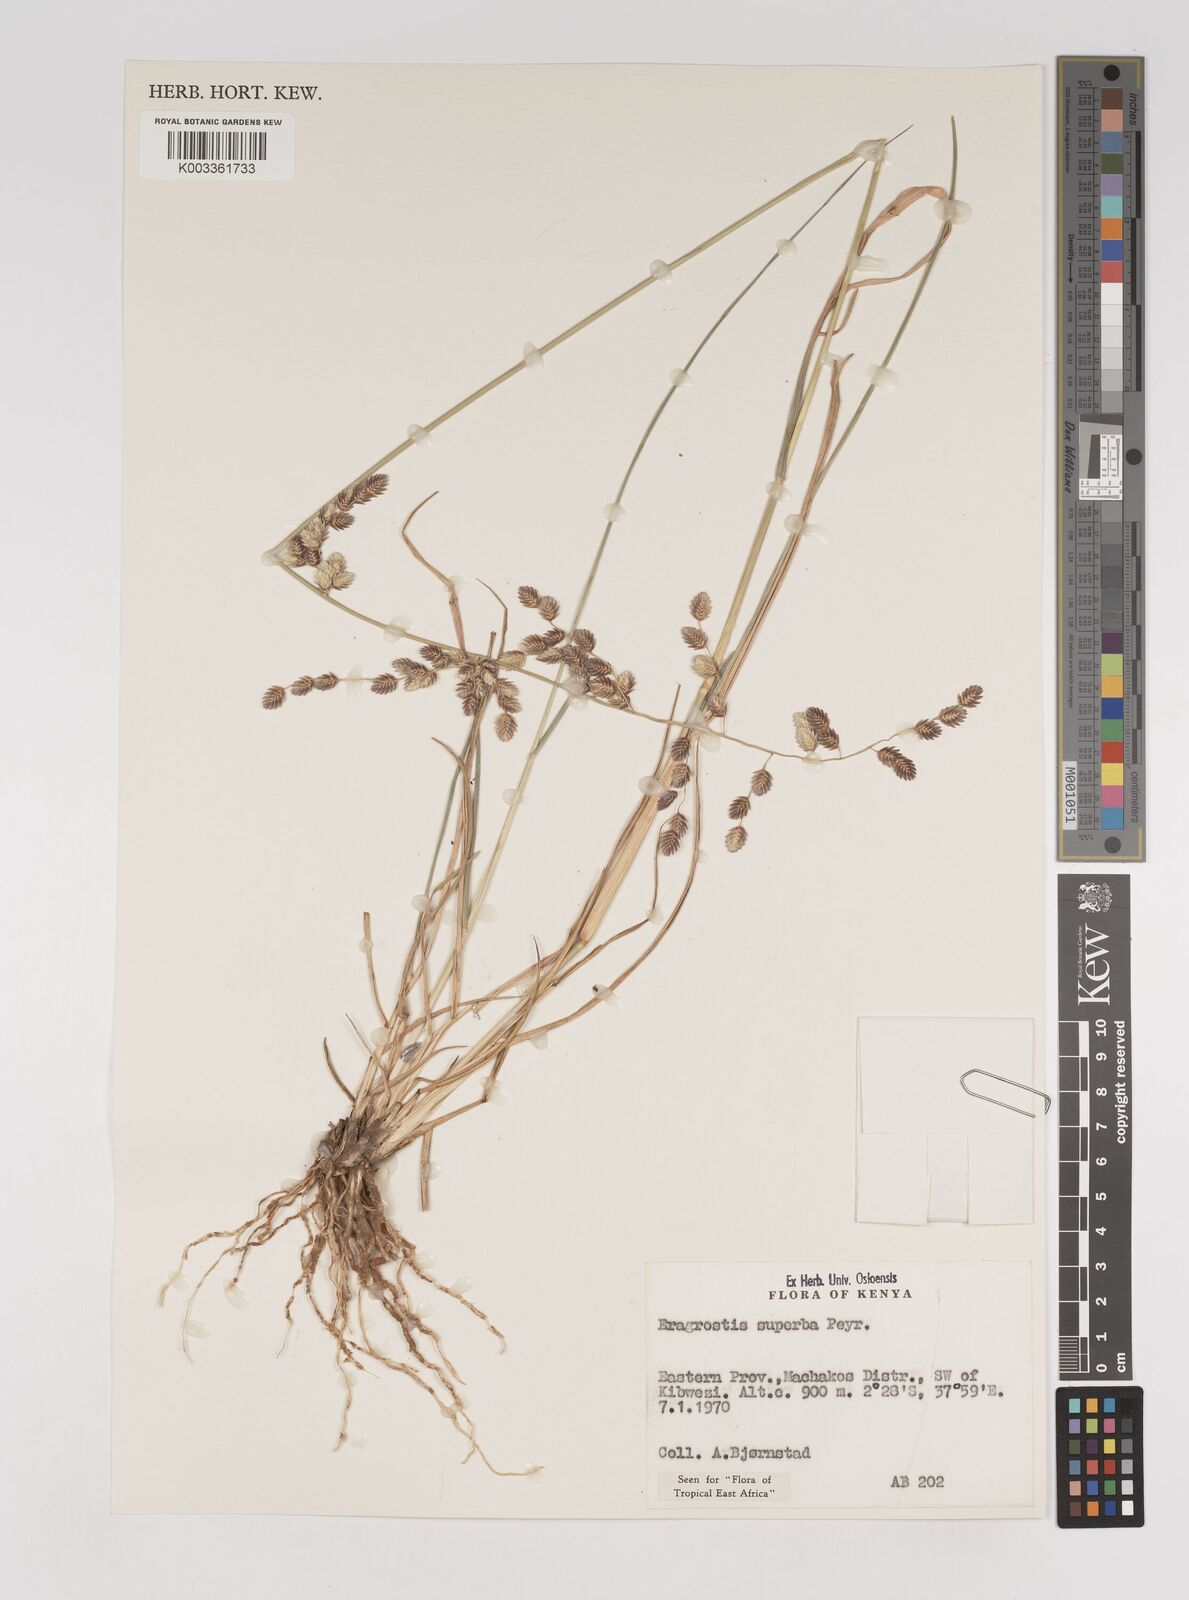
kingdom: Plantae
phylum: Tracheophyta
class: Liliopsida
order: Poales
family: Poaceae
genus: Eragrostis
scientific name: Eragrostis superba
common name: Wilman lovegrass
